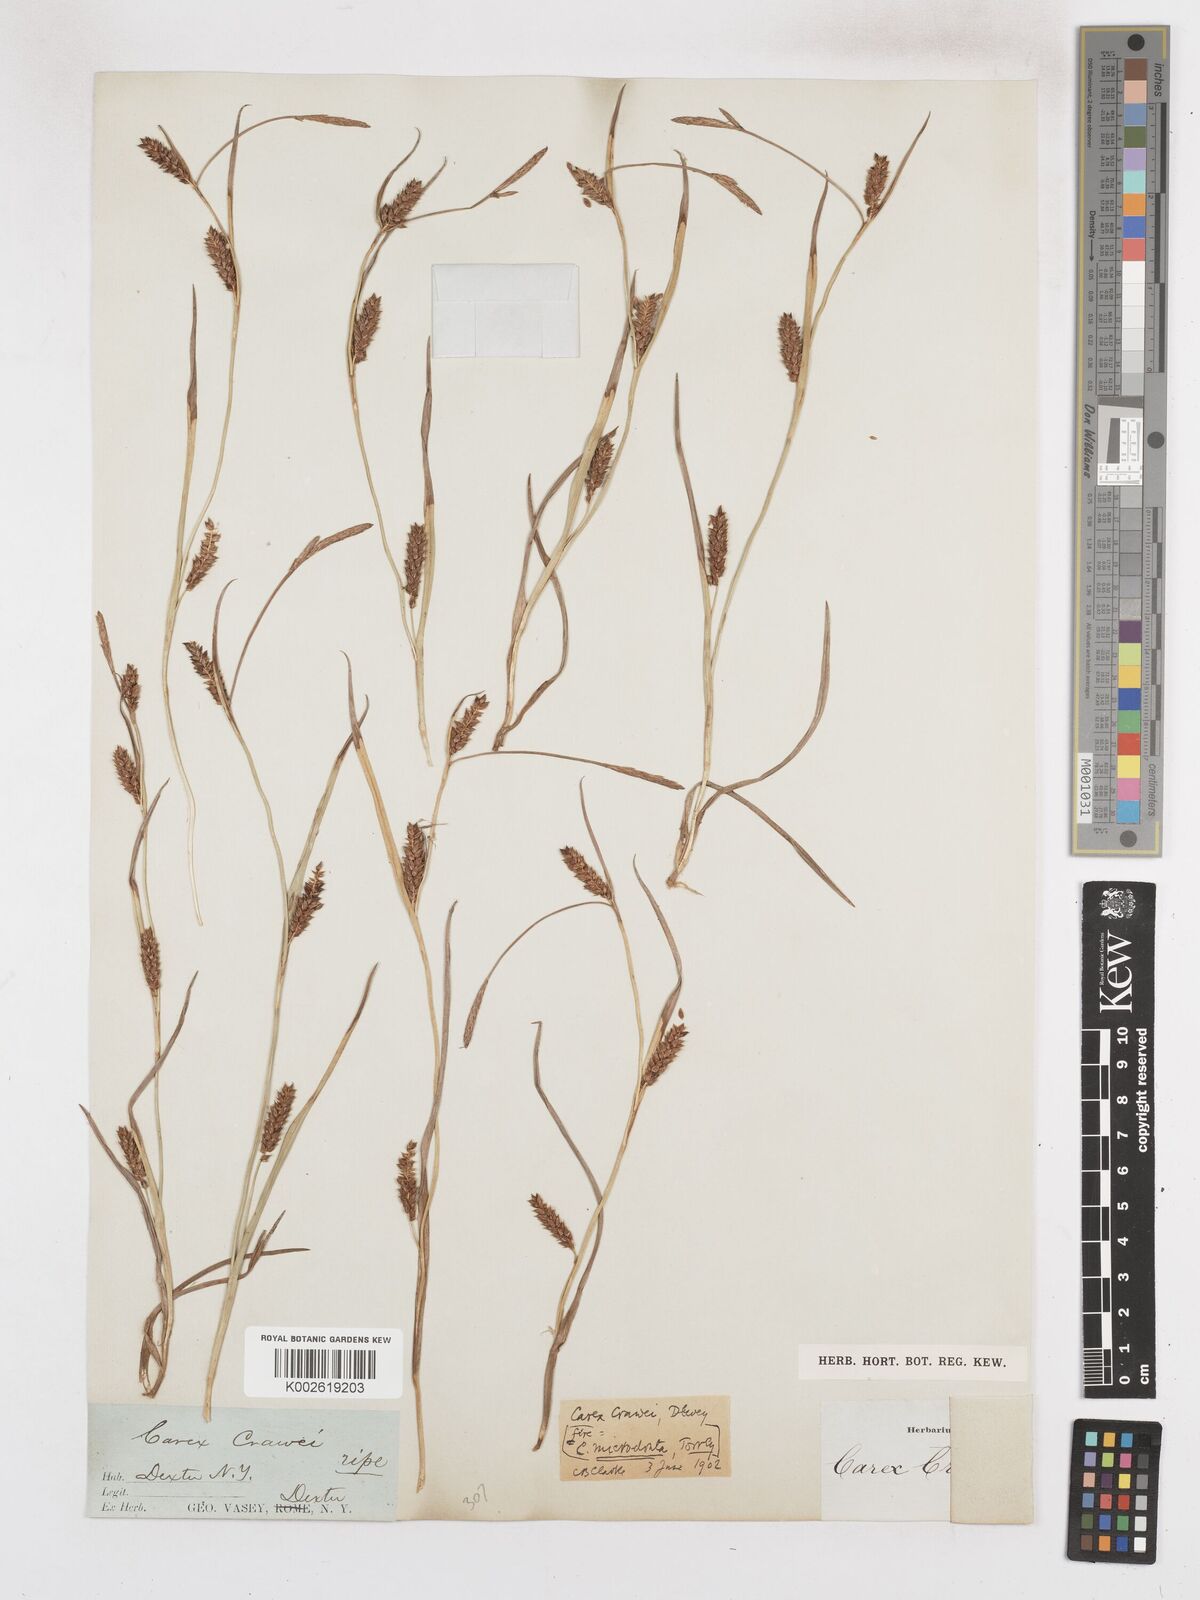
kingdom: Plantae
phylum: Tracheophyta
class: Liliopsida
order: Poales
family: Cyperaceae
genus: Carex
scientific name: Carex microdonta
